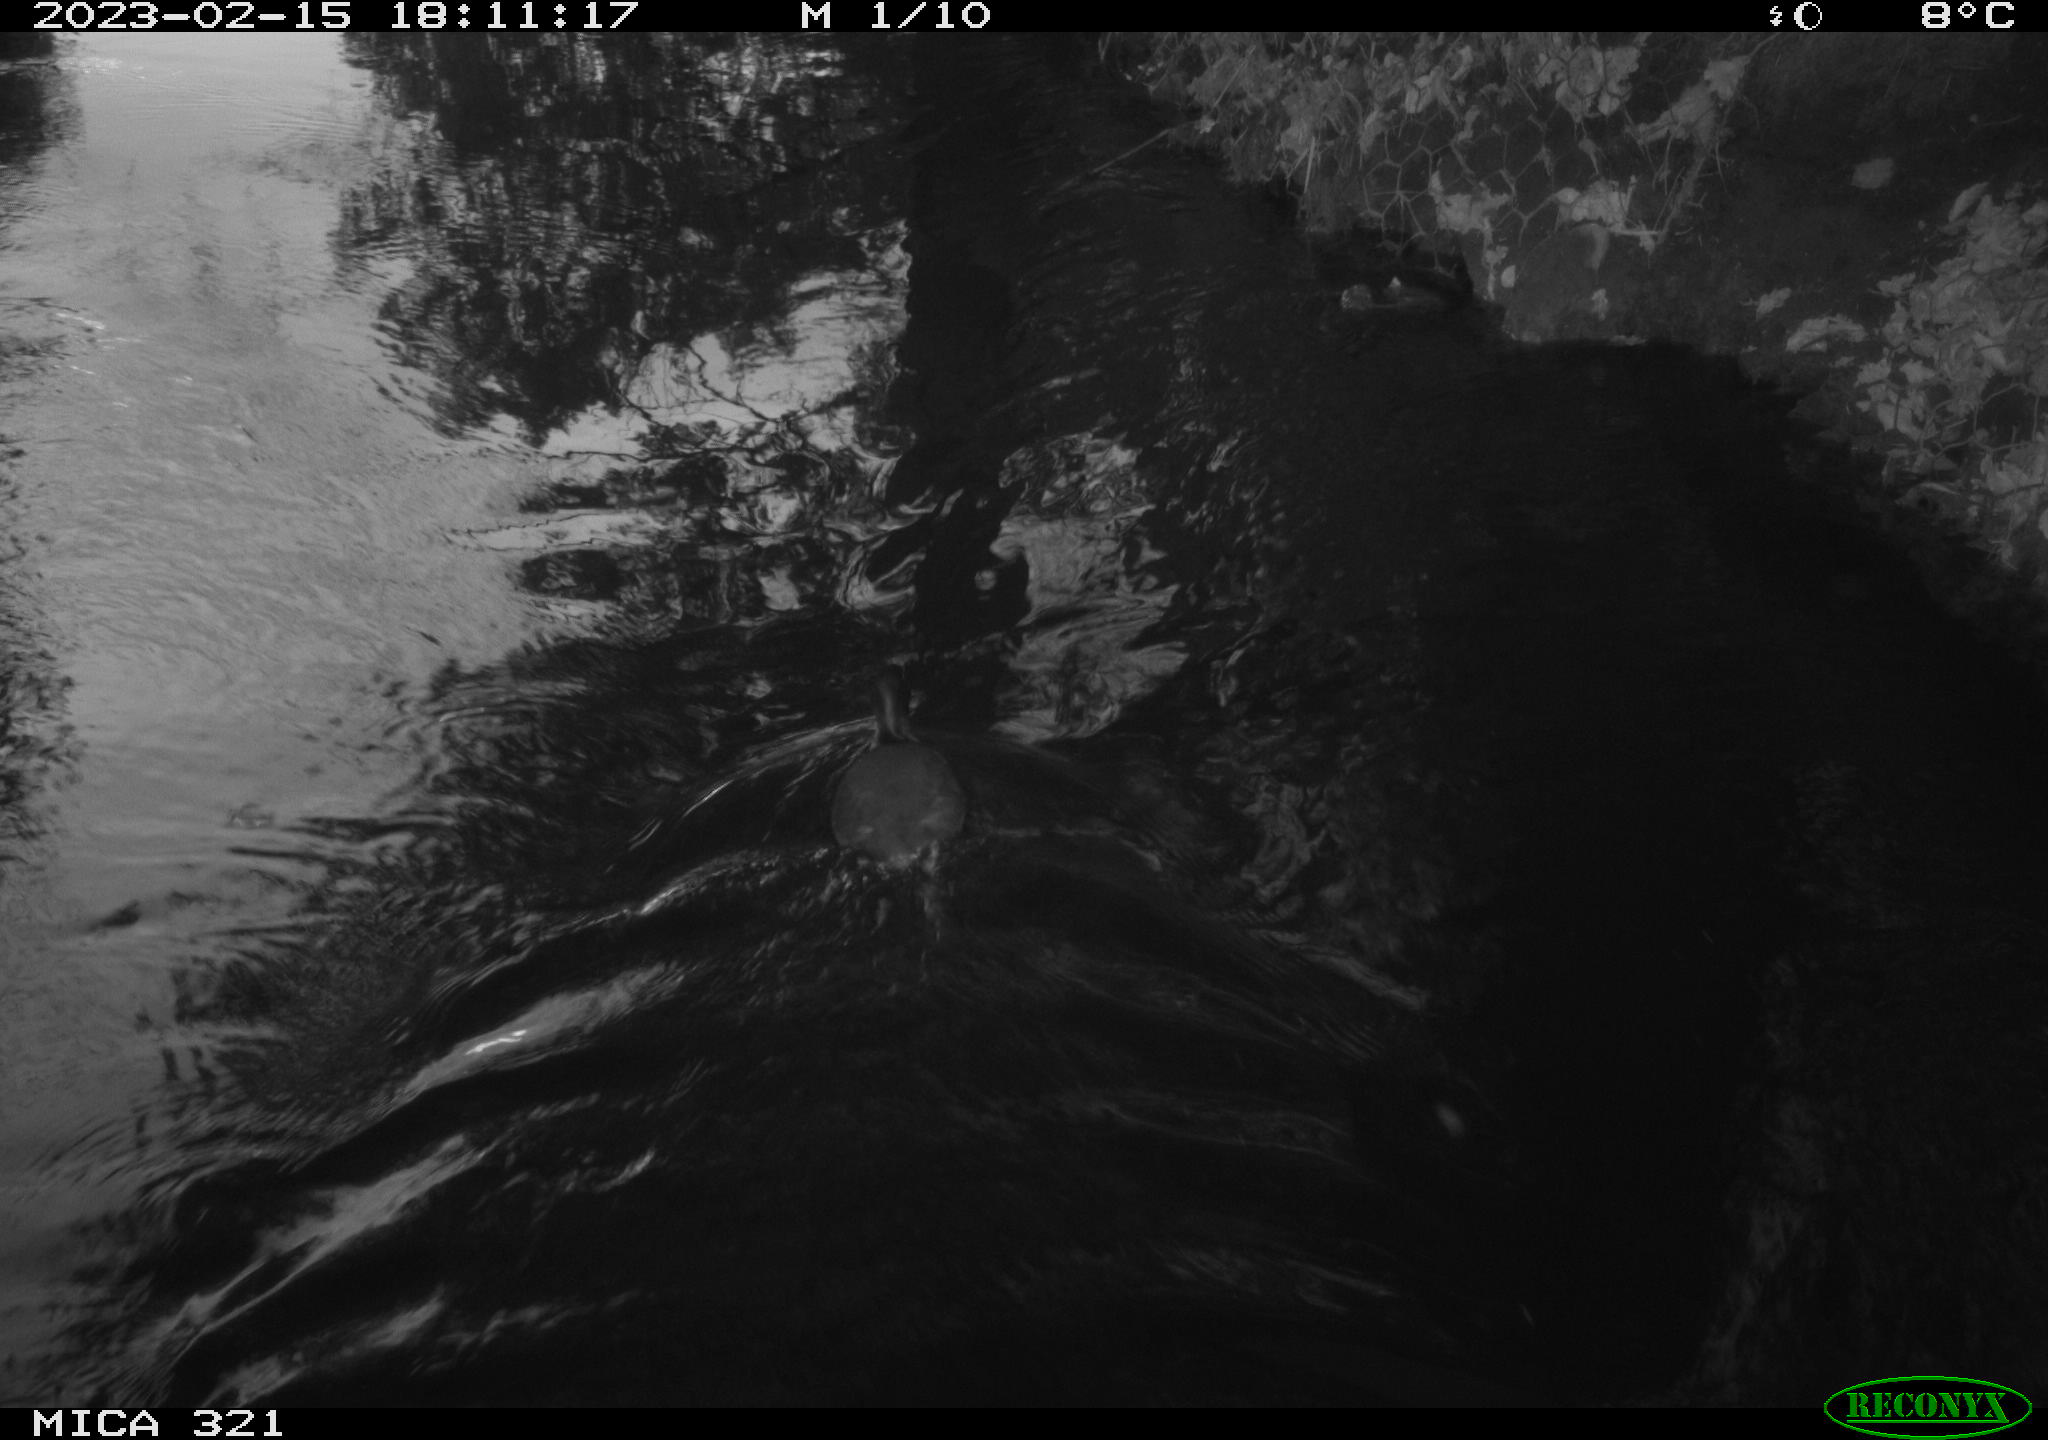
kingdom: Animalia
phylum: Chordata
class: Aves
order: Pelecaniformes
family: Ardeidae
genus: Ardea
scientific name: Ardea cinerea
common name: Grey heron
